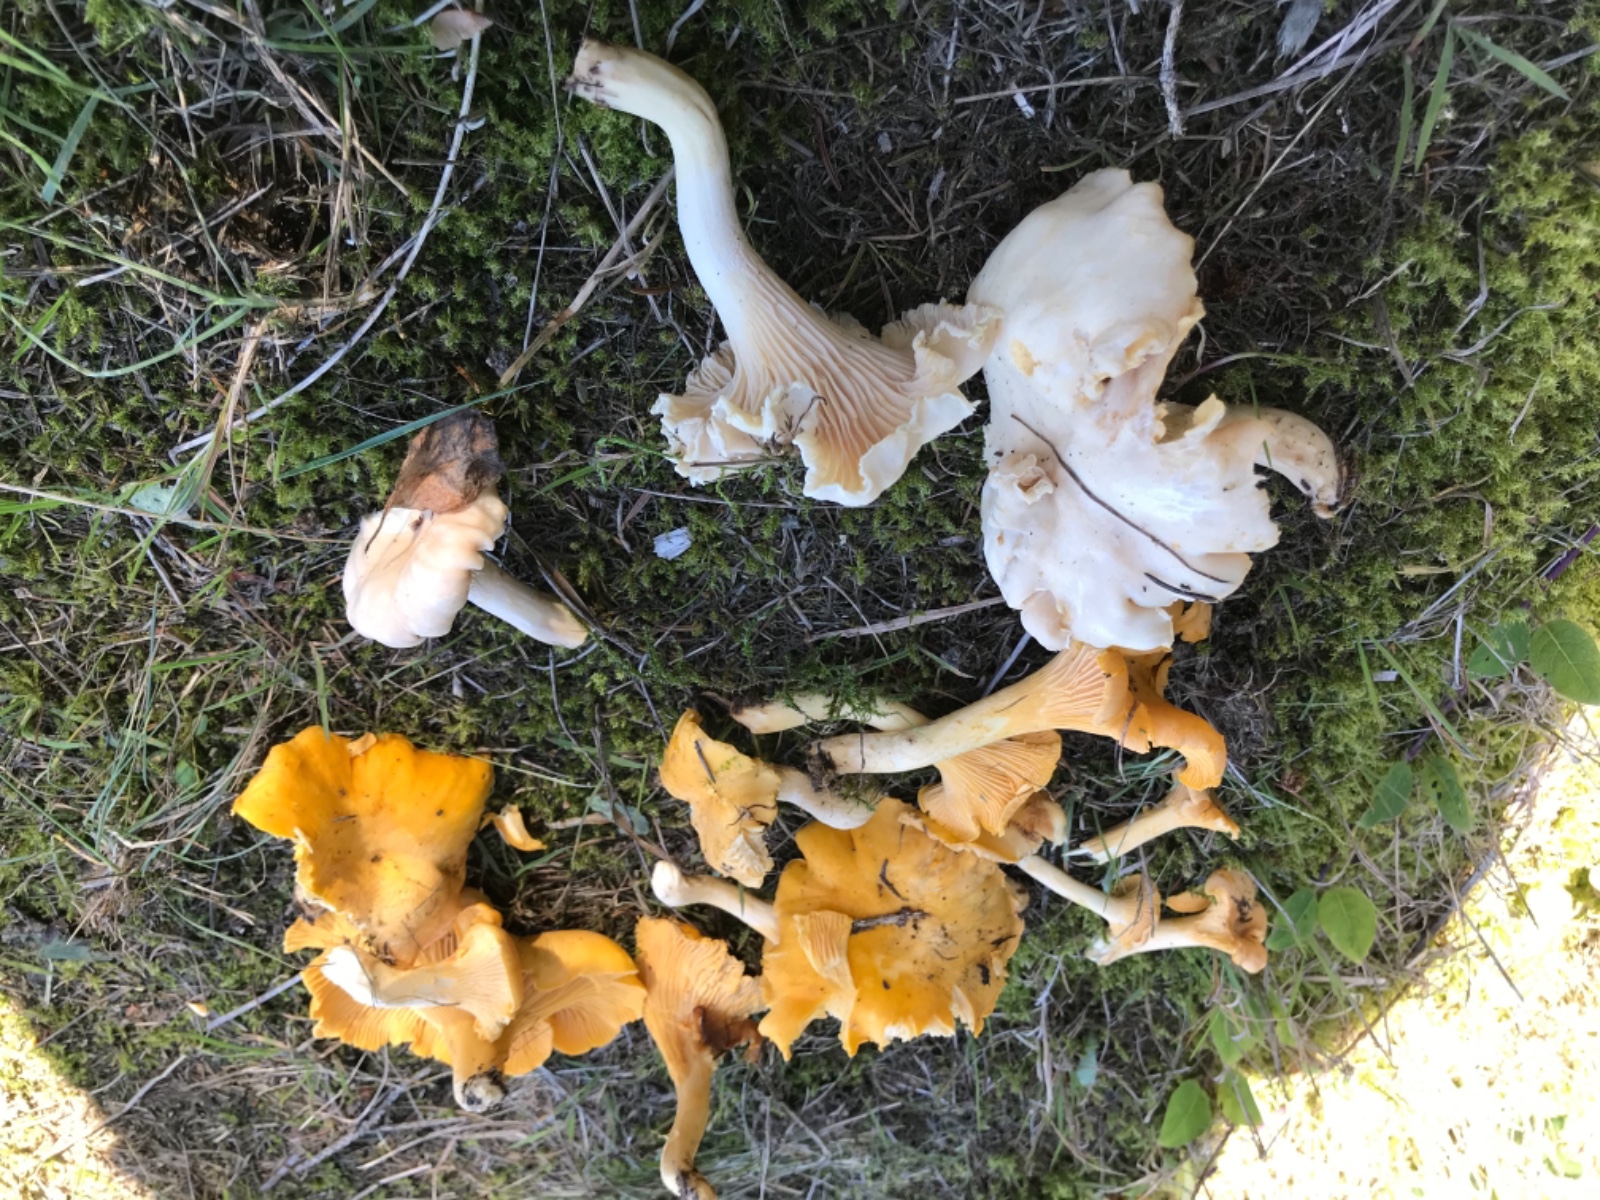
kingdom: Fungi
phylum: Basidiomycota
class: Agaricomycetes
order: Cantharellales
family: Hydnaceae
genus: Cantharellus
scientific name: Cantharellus cibarius
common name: almindelig kantarel
